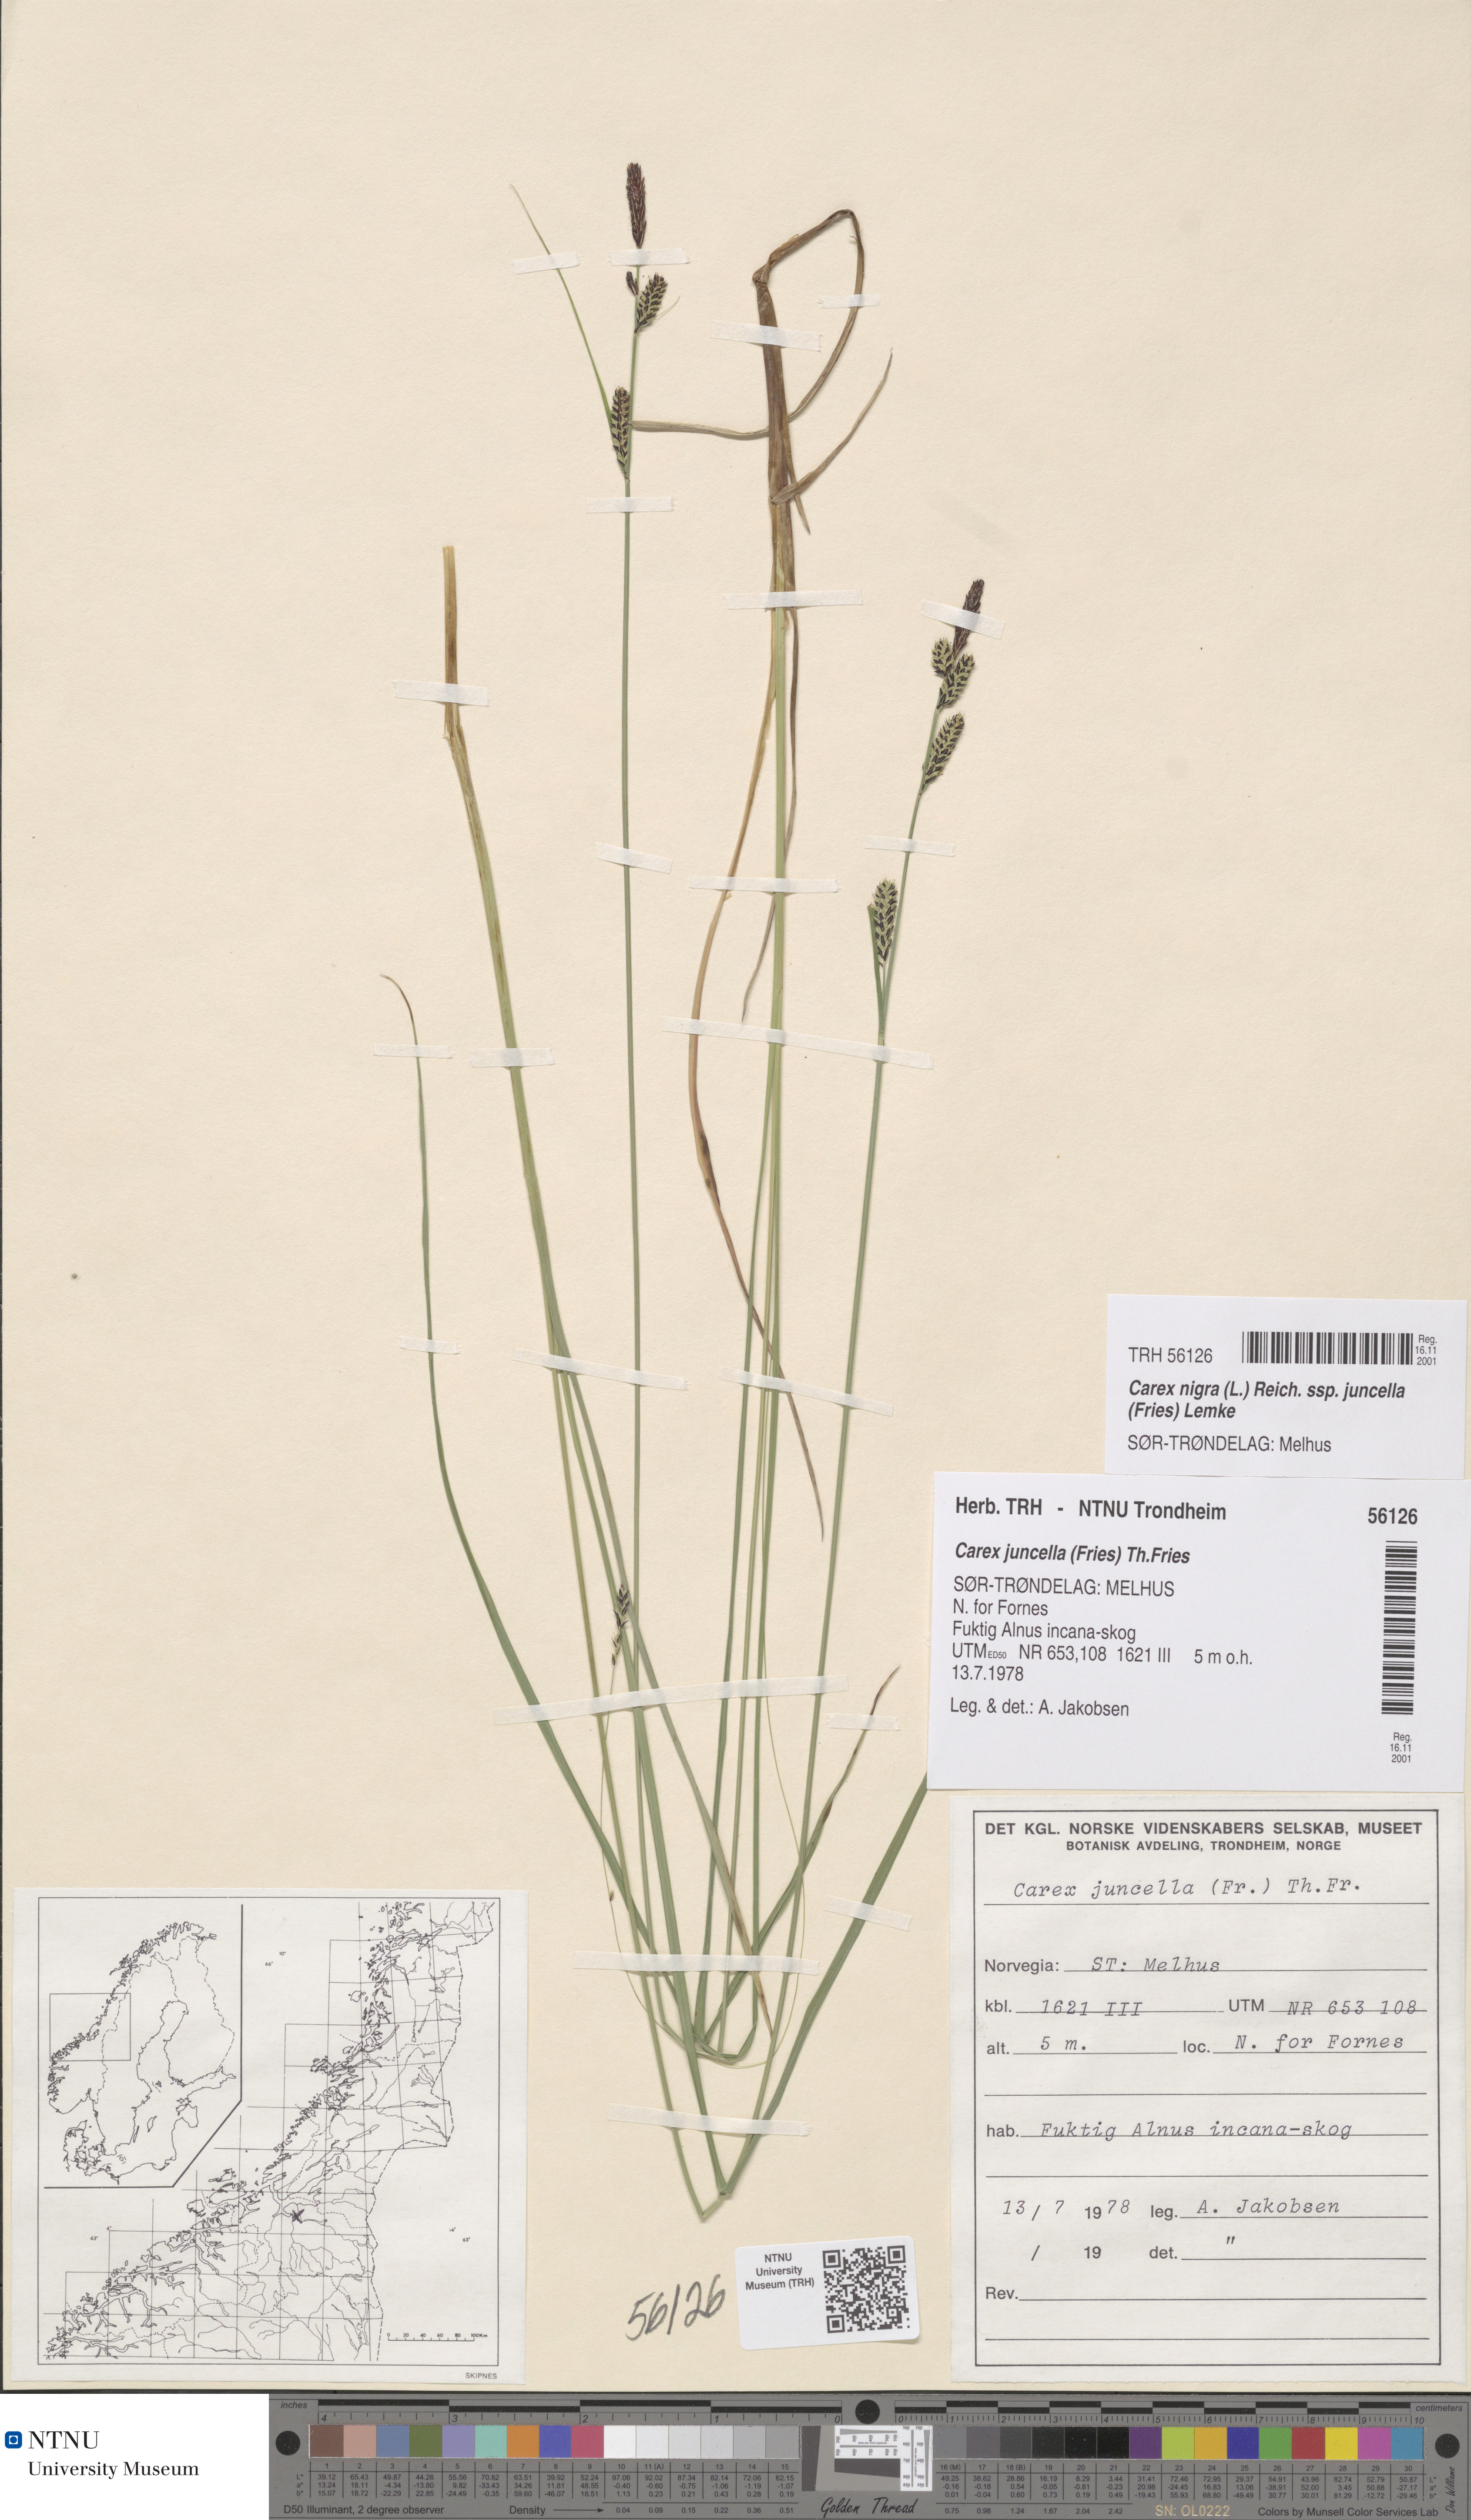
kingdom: Plantae
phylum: Tracheophyta
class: Liliopsida
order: Poales
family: Cyperaceae
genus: Carex
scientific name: Carex nigra
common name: Common sedge
